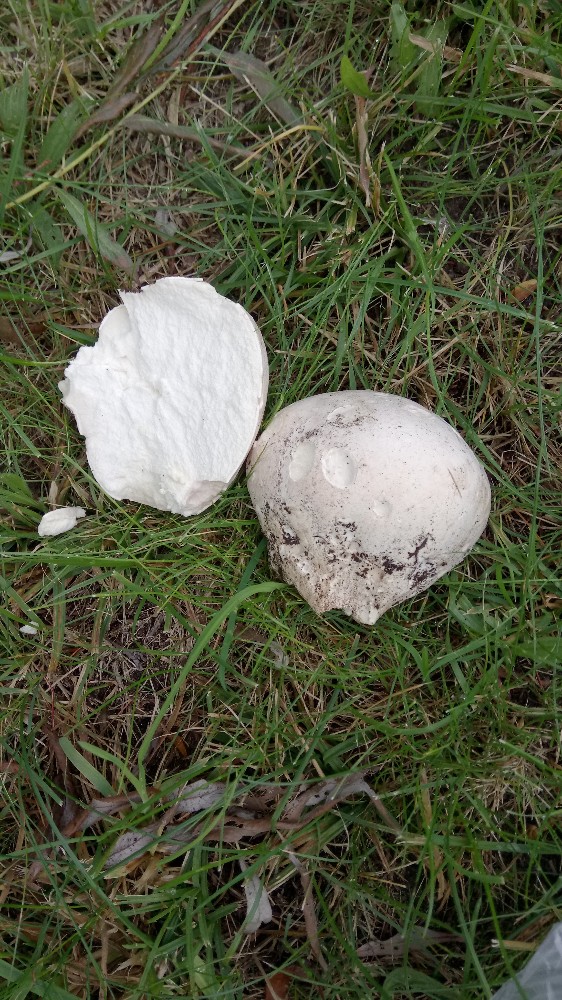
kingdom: Fungi
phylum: Basidiomycota
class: Agaricomycetes
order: Agaricales
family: Lycoperdaceae
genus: Calvatia
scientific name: Calvatia gigantea
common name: kæmpestøvbold
